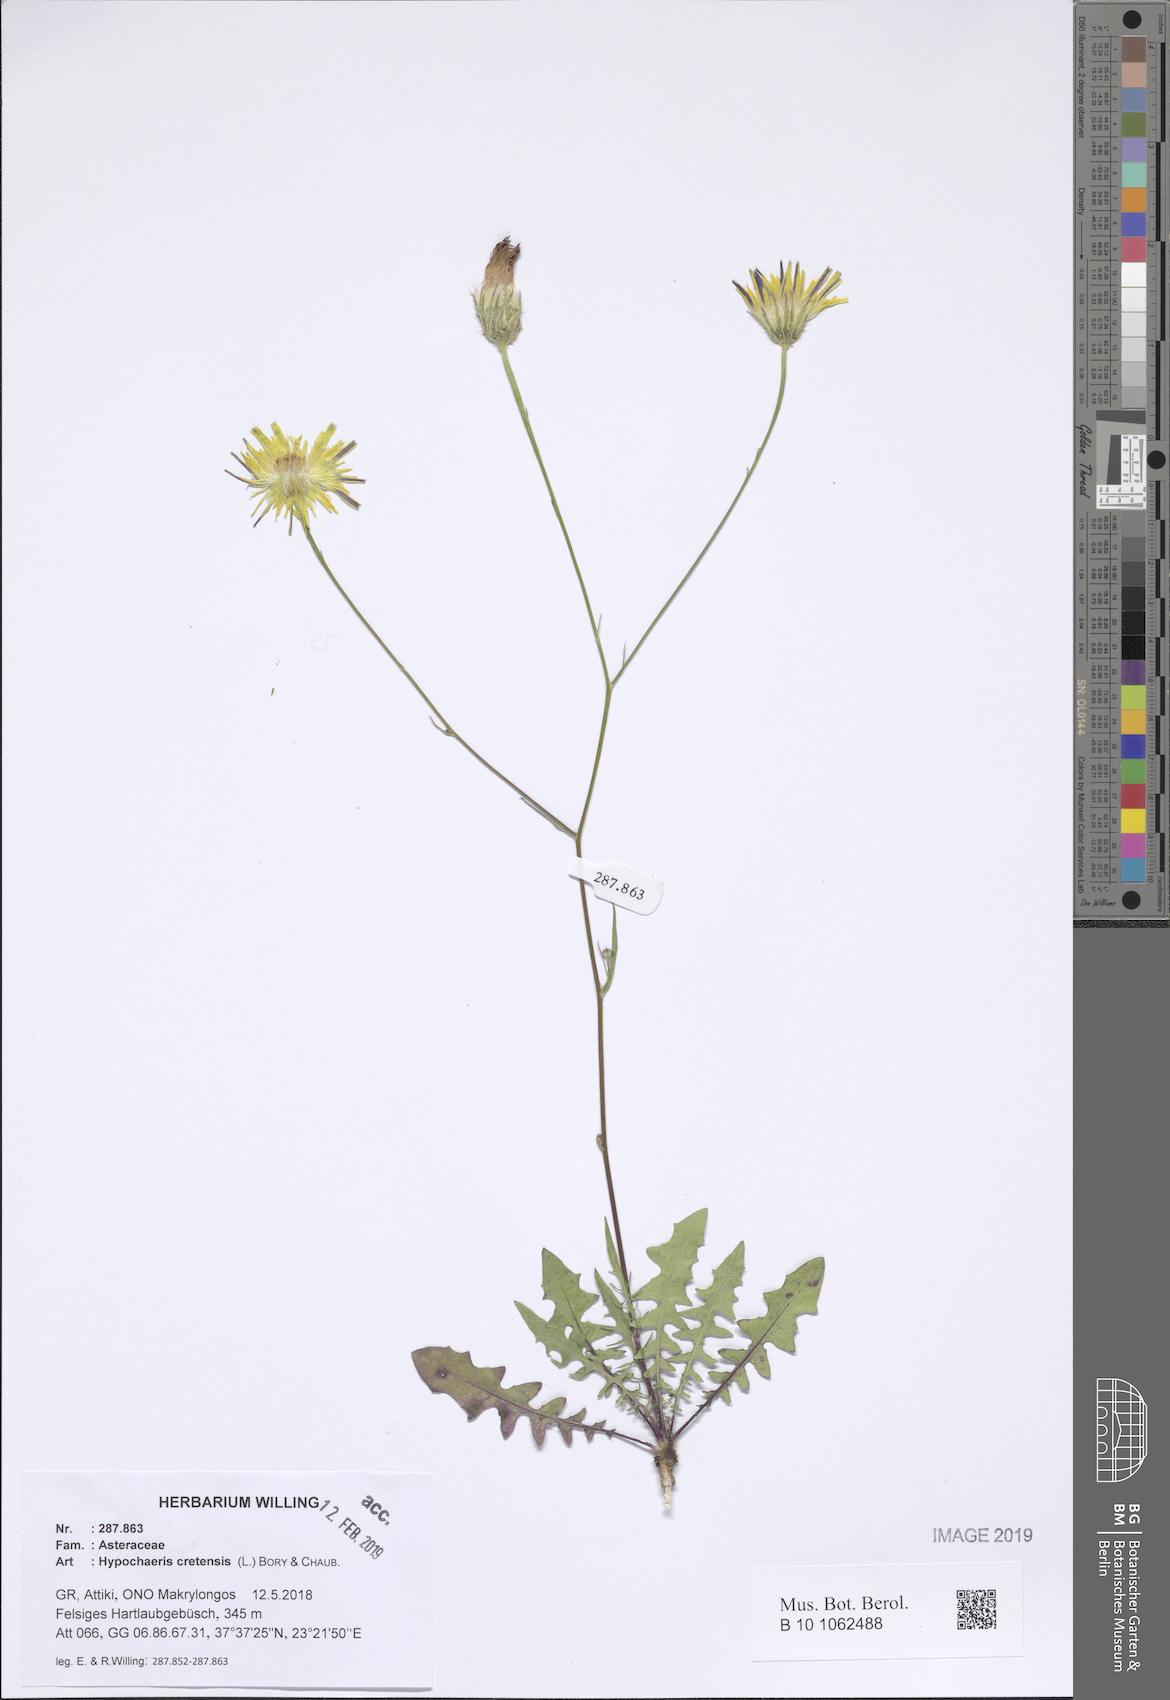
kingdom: Plantae
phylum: Tracheophyta
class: Magnoliopsida
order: Asterales
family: Asteraceae
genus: Hypochaeris
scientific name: Hypochaeris cretensis
